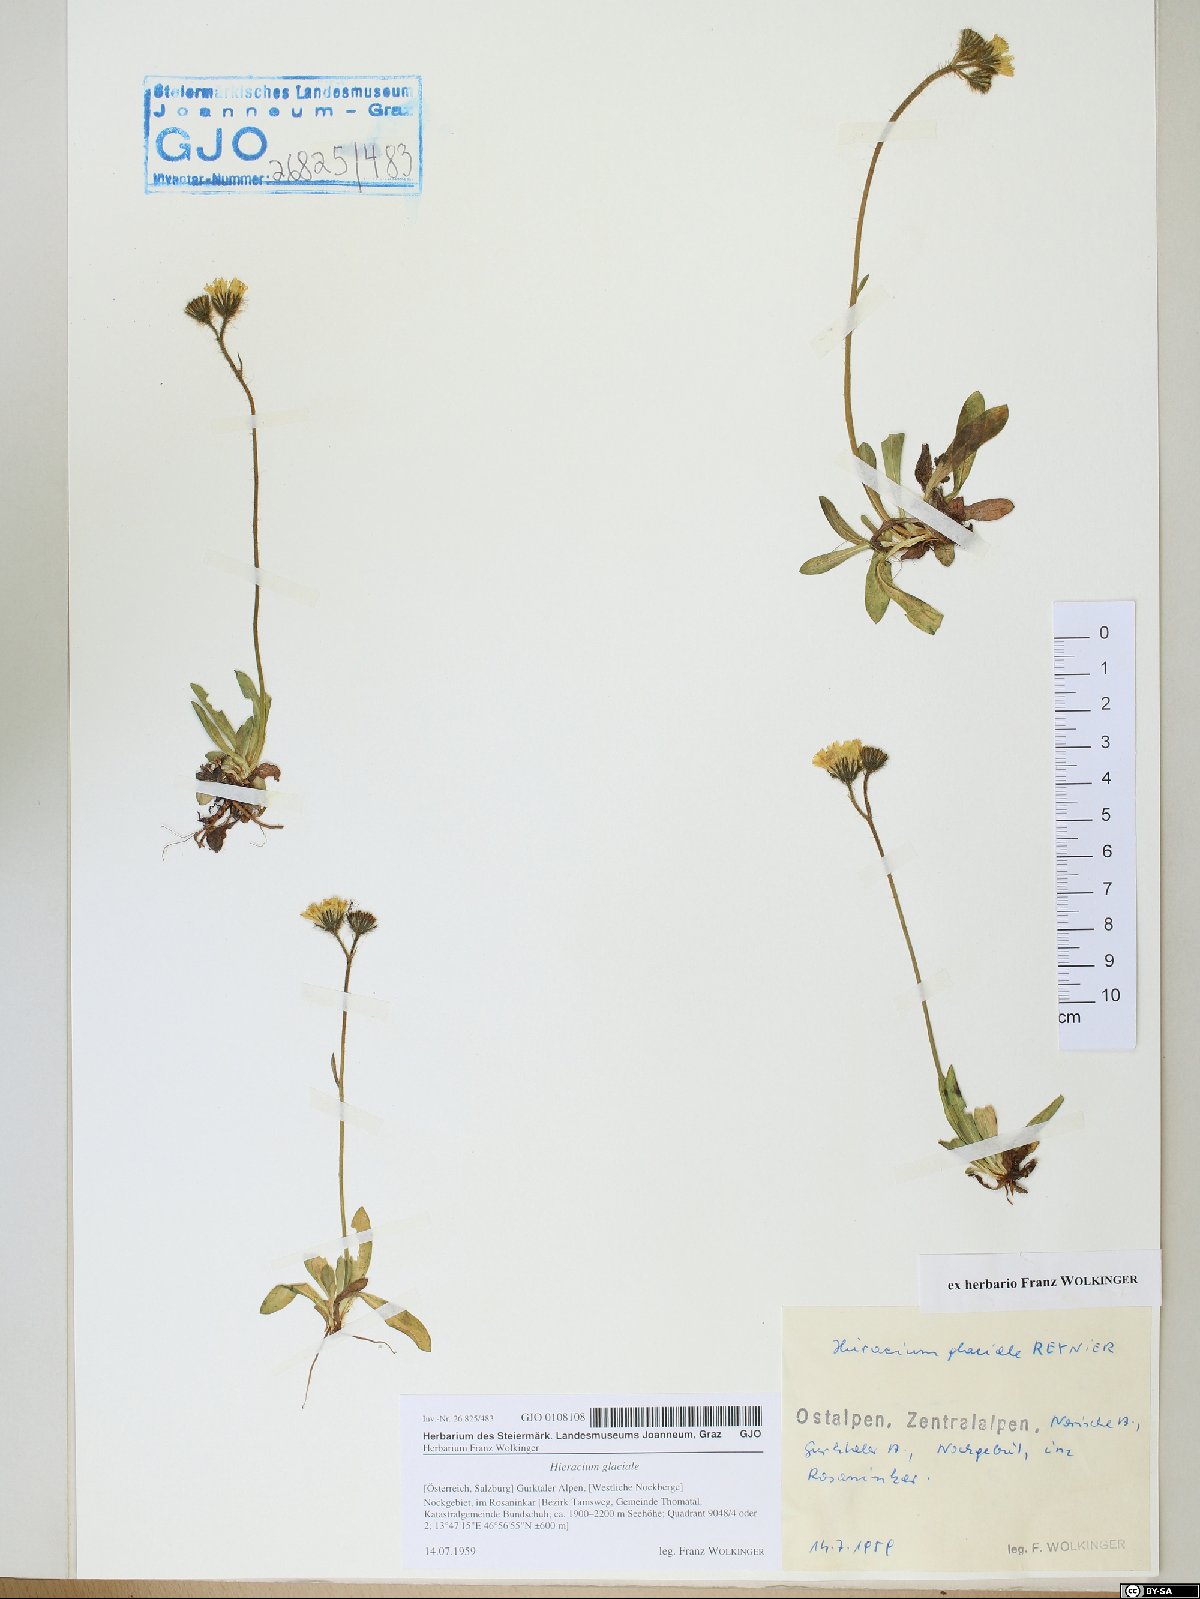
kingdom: Plantae
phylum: Tracheophyta
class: Magnoliopsida
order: Asterales
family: Asteraceae
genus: Pilosella
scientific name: Pilosella glacialis
